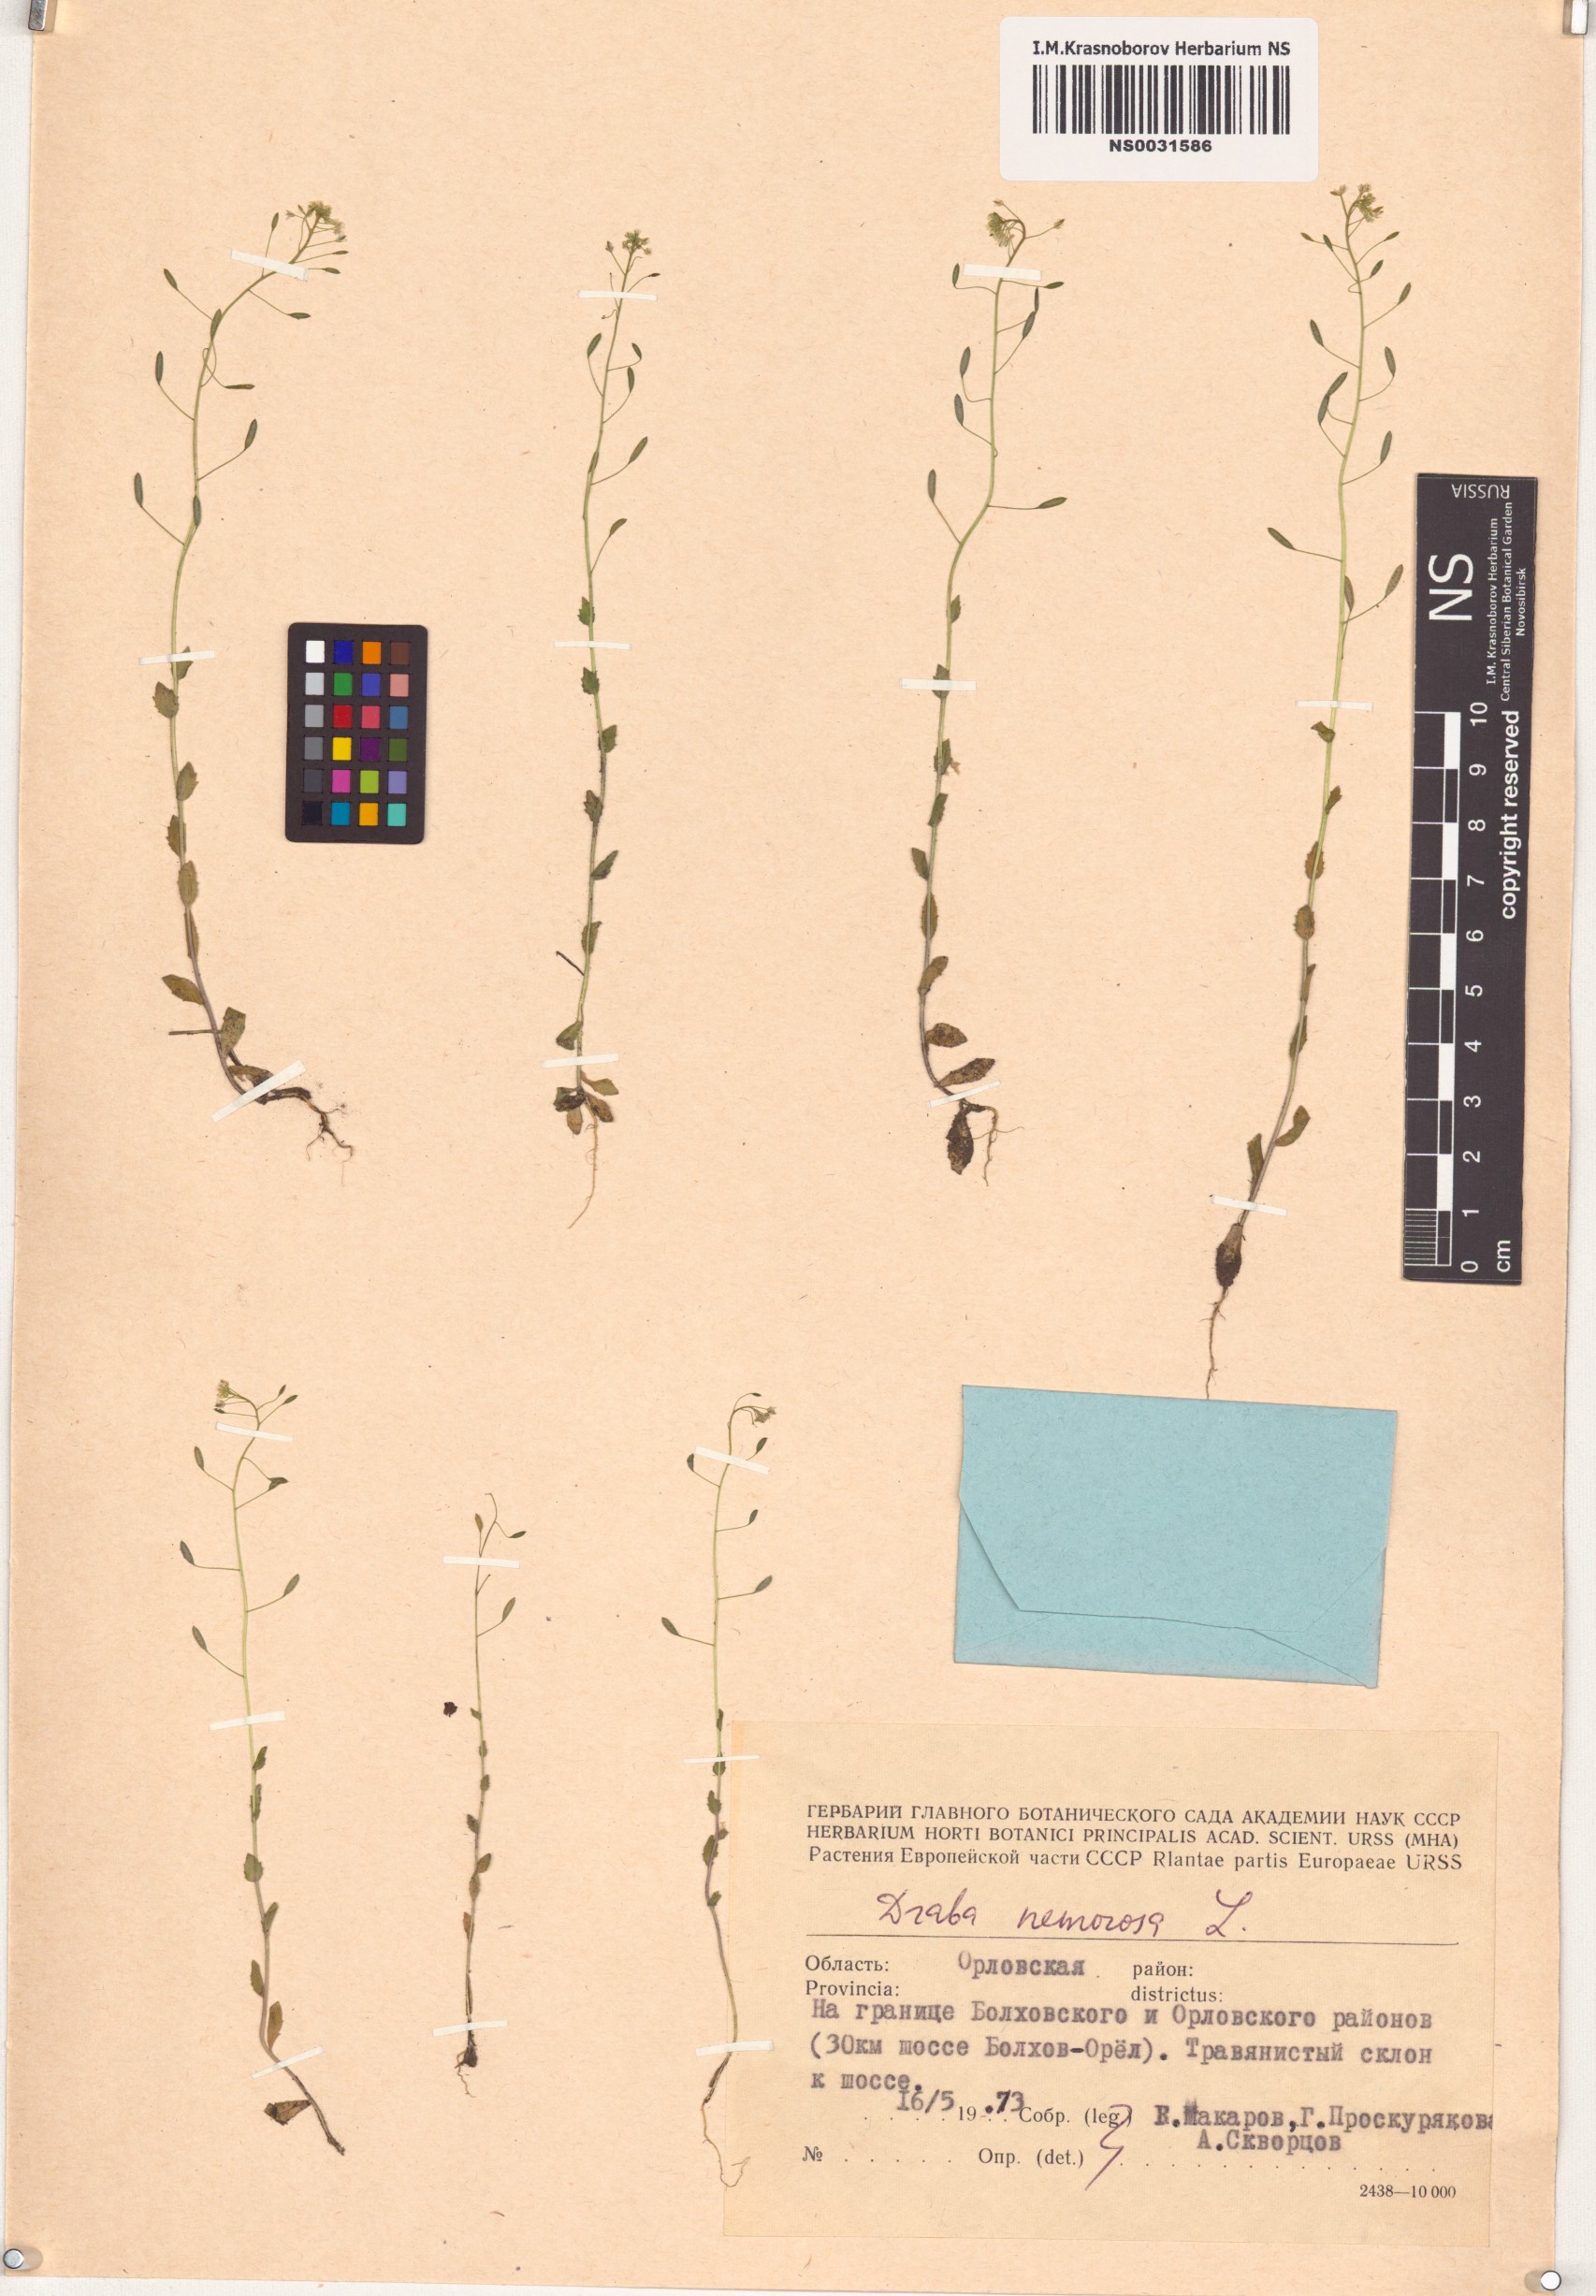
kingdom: Plantae
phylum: Tracheophyta
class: Magnoliopsida
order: Brassicales
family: Brassicaceae
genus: Draba
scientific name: Draba nemorosa
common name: Wood whitlow-grass
